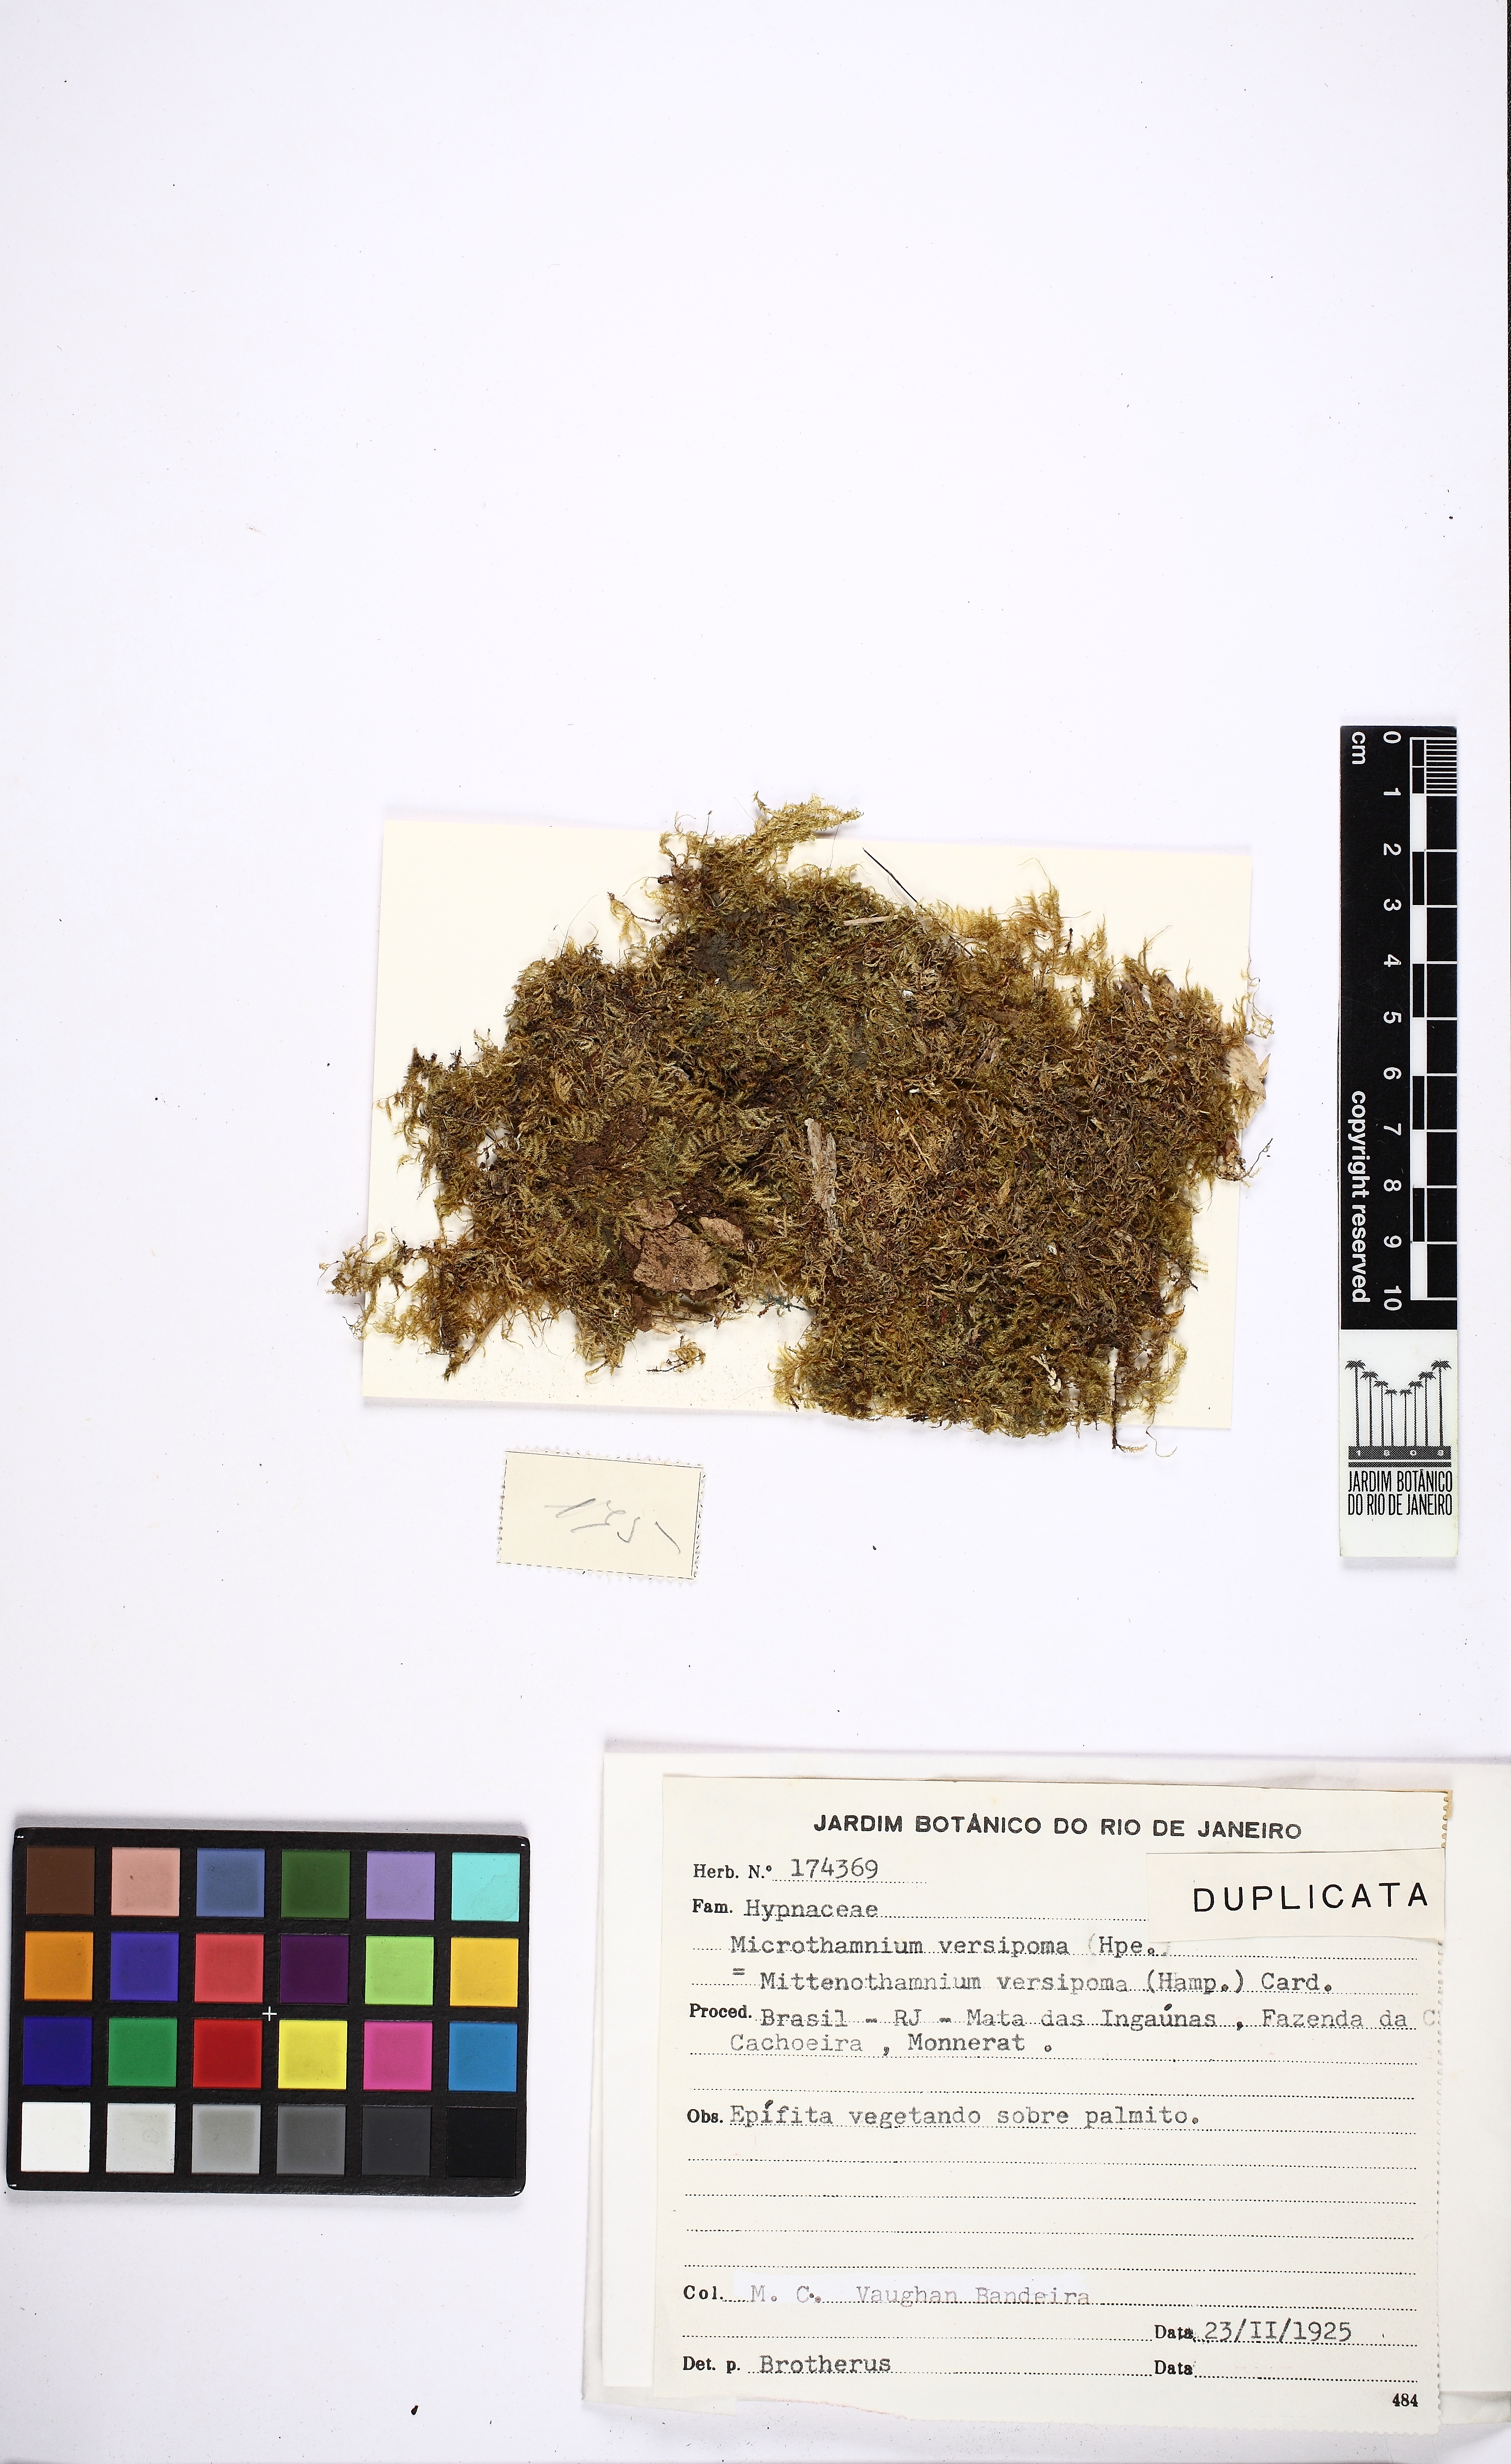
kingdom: Plantae
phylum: Bryophyta
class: Bryopsida
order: Hypnales
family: Hypnaceae
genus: Mittenothamnium
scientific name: Mittenothamnium reptans
